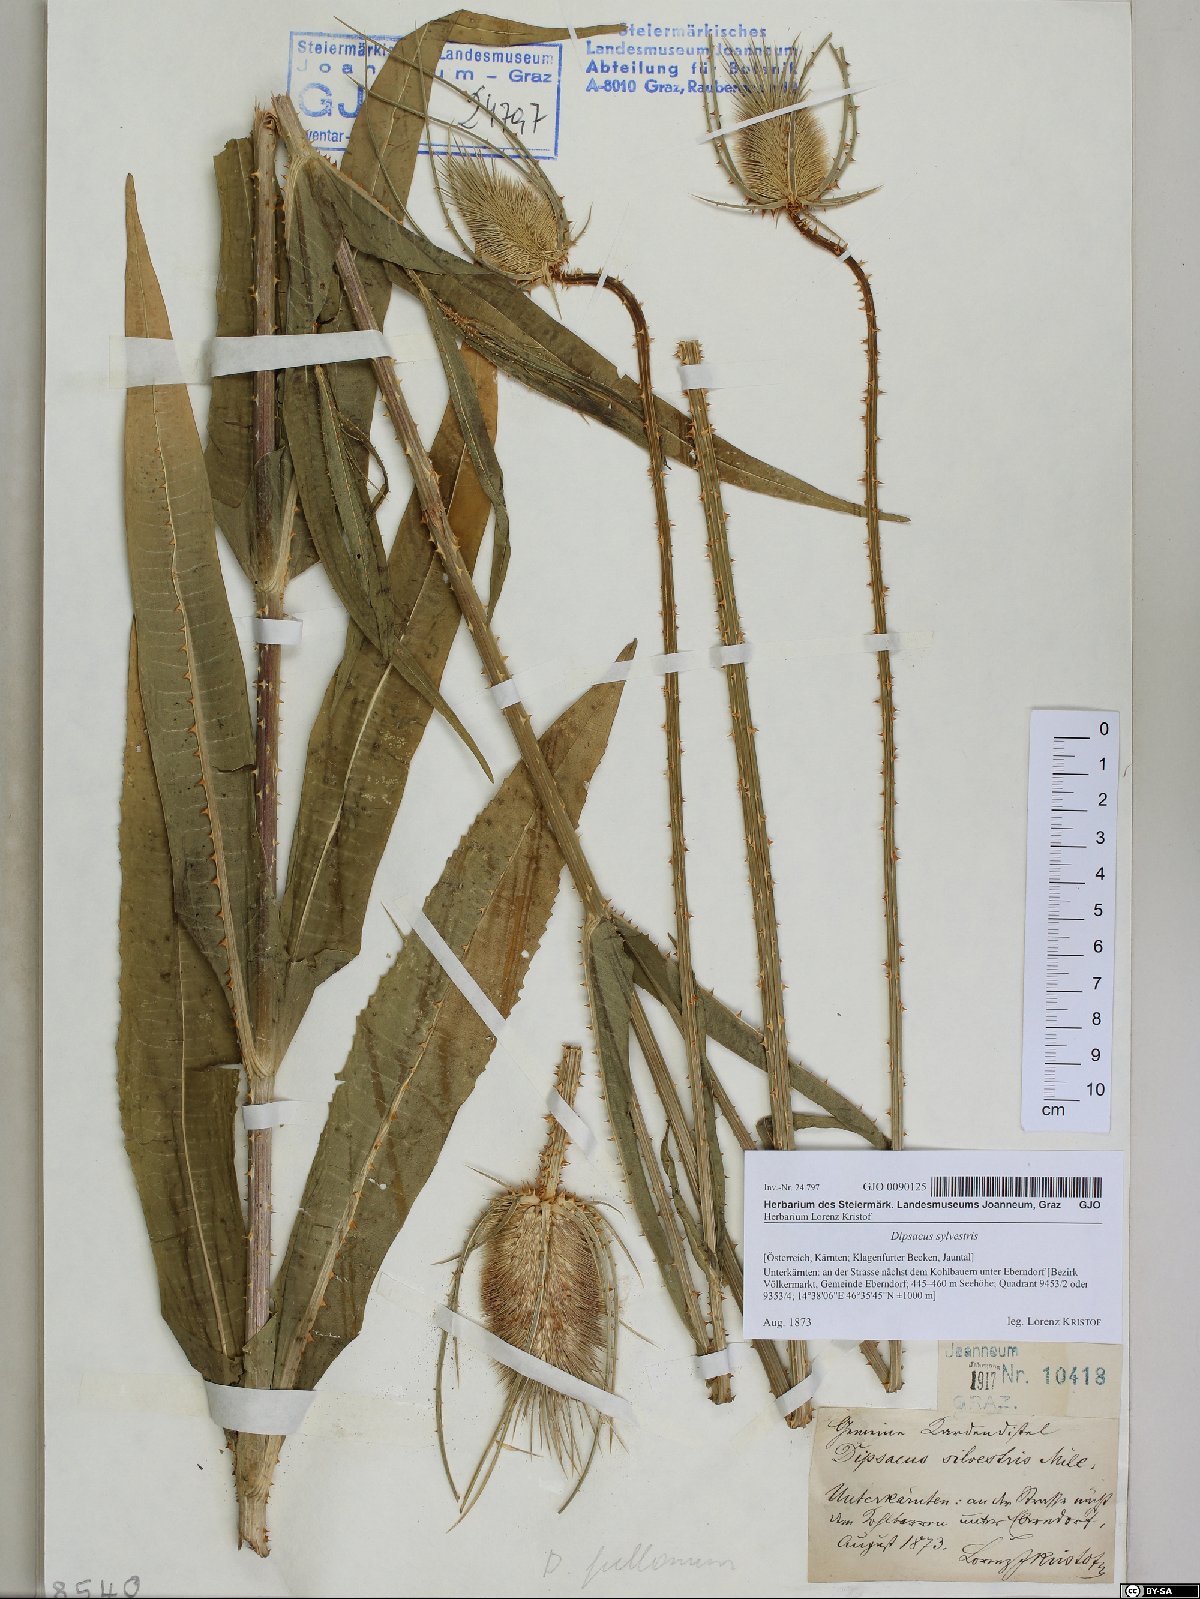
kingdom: Plantae
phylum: Tracheophyta
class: Magnoliopsida
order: Dipsacales
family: Caprifoliaceae
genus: Dipsacus
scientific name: Dipsacus fullonum
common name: Teasel
